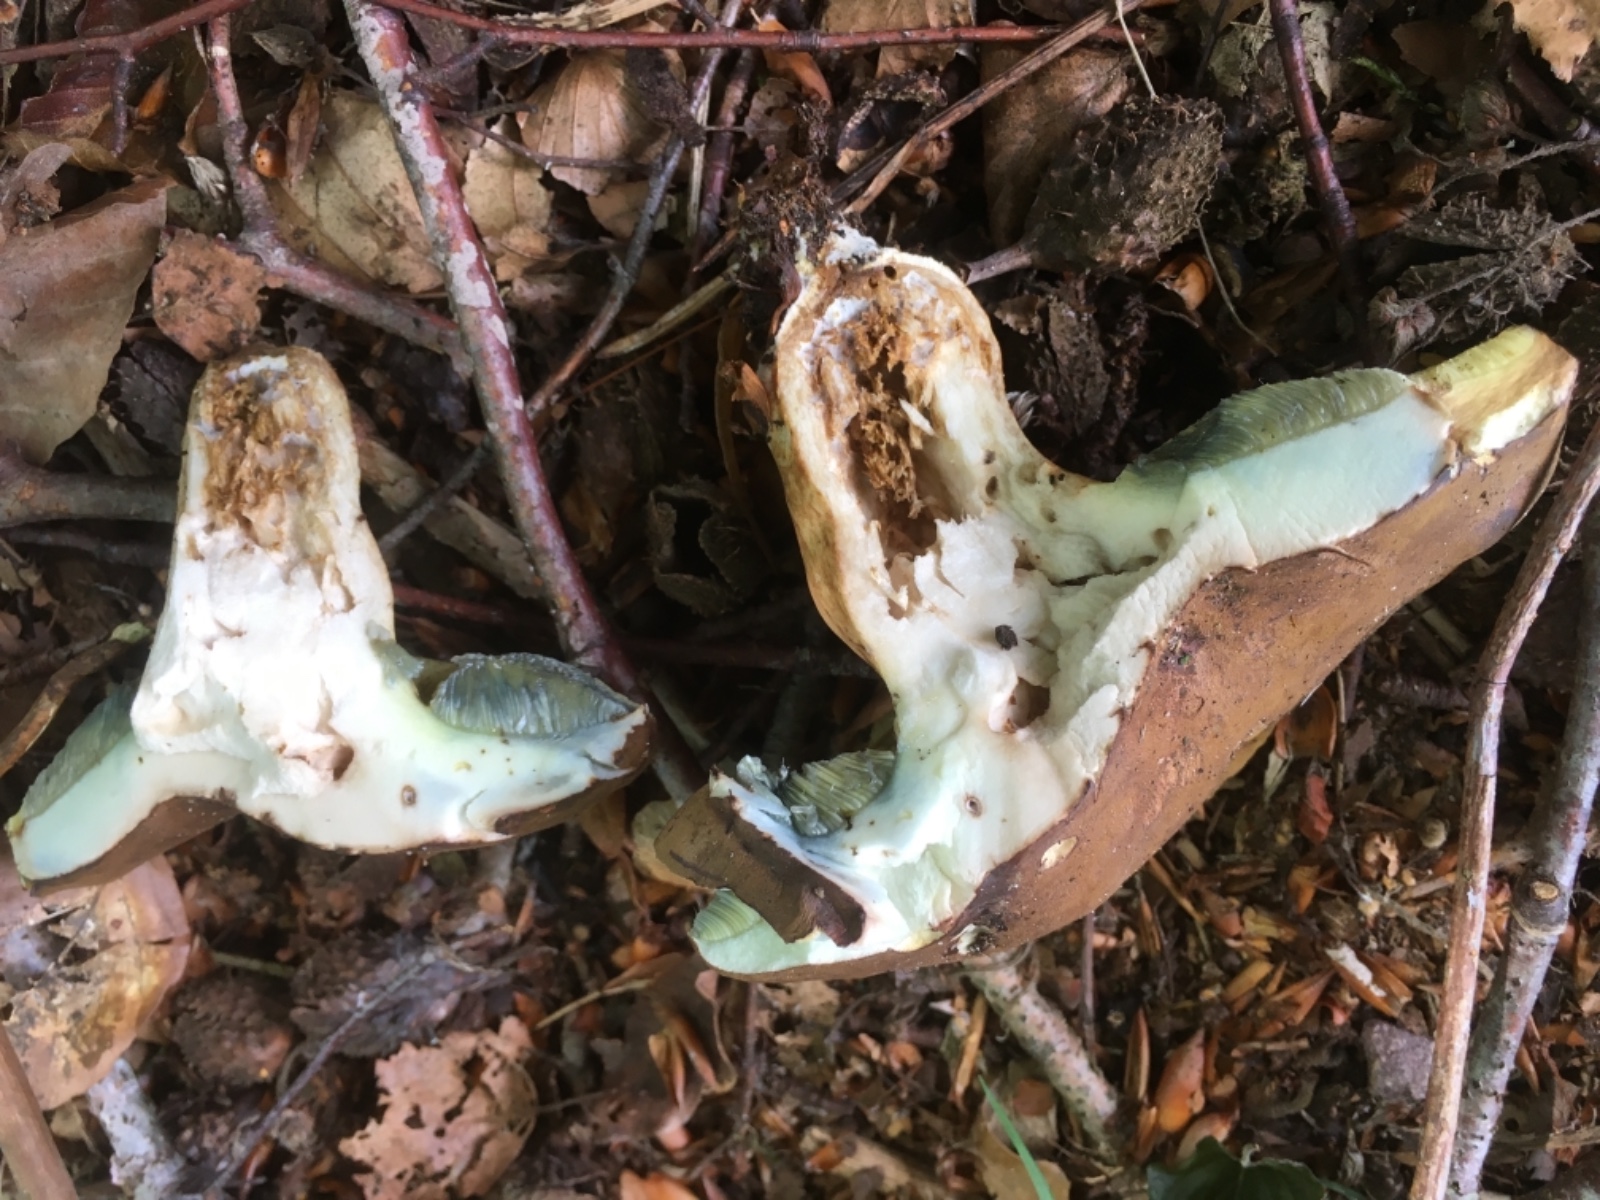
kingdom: Fungi
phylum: Basidiomycota
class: Agaricomycetes
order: Boletales
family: Boletaceae
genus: Imleria
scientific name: Imleria badia
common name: brunstokket rørhat
